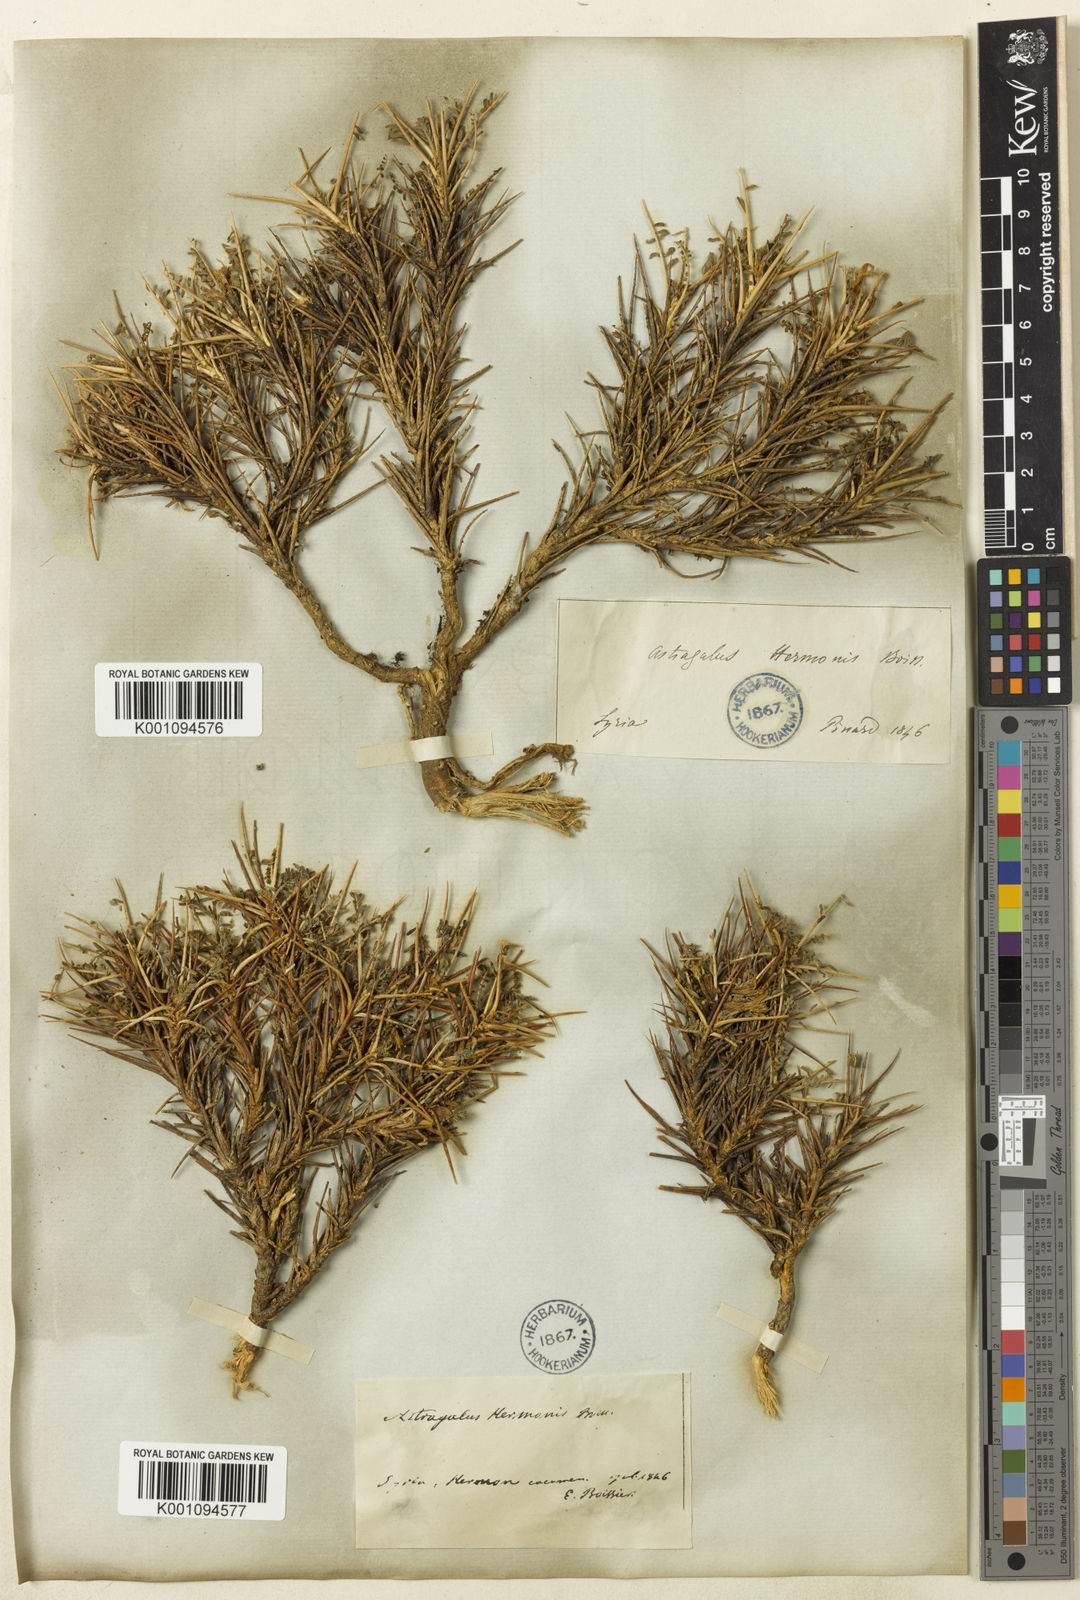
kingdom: Plantae
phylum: Tracheophyta
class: Magnoliopsida
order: Fabales
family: Fabaceae
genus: Astragalus
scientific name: Astragalus
